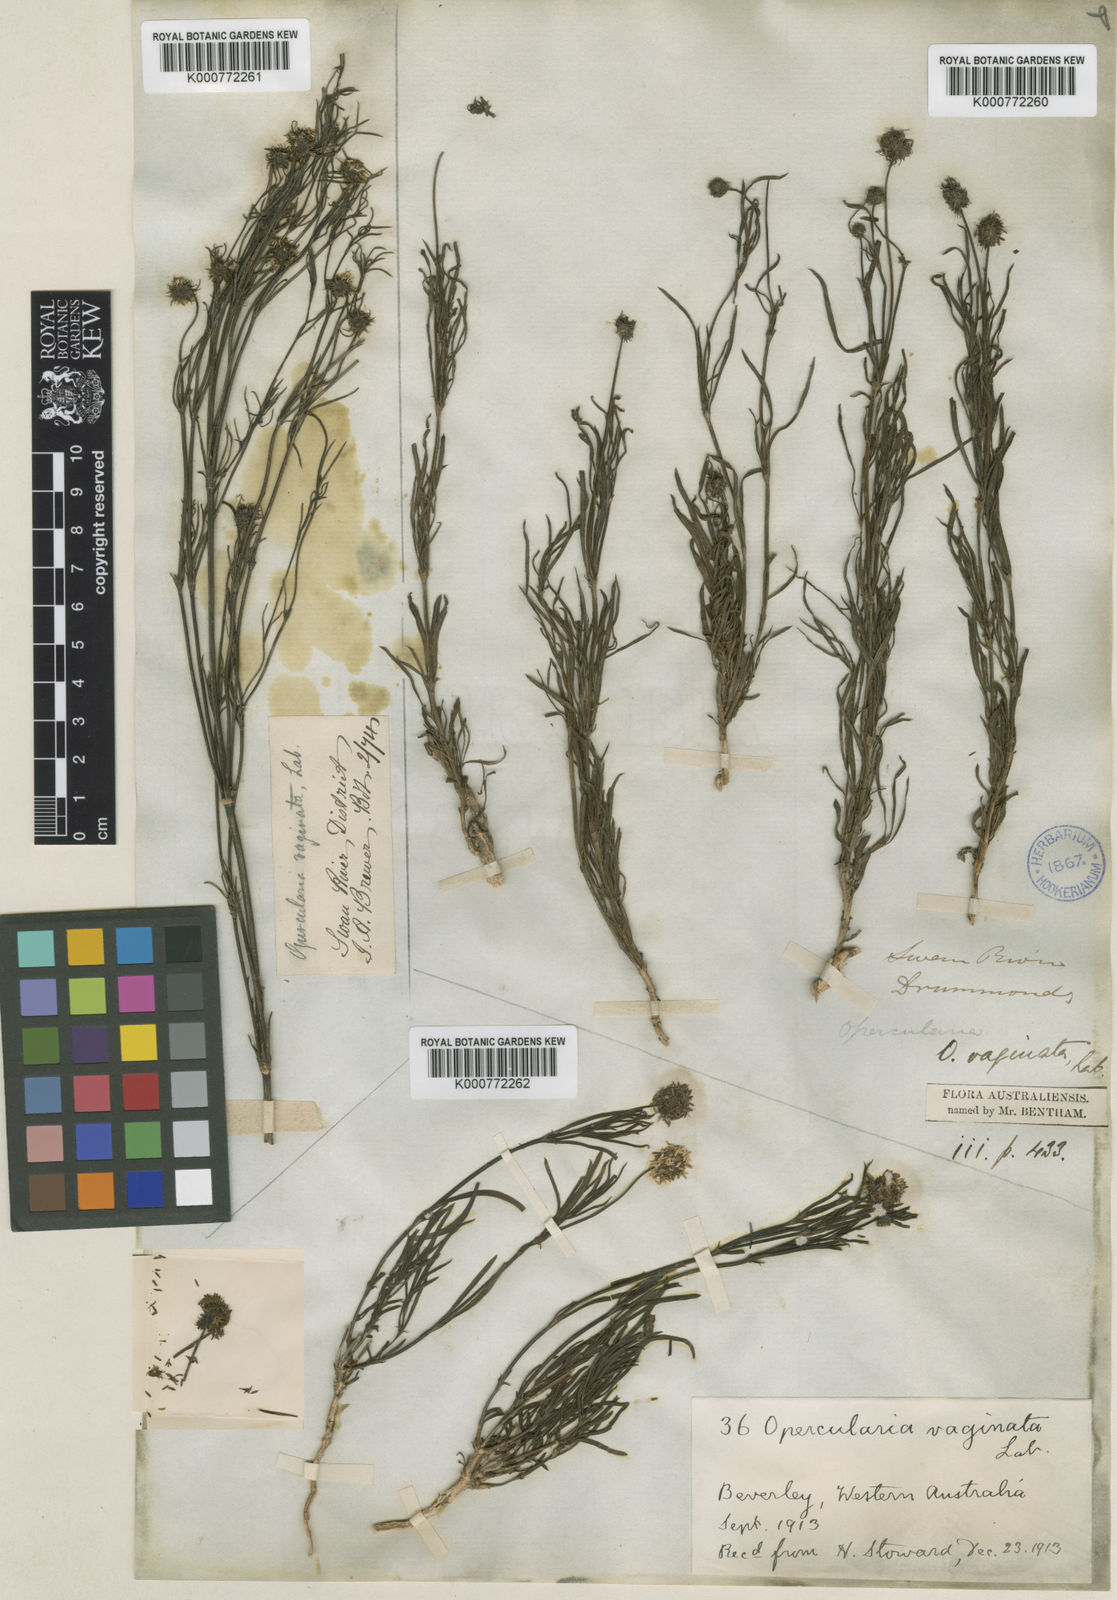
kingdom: Plantae
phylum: Tracheophyta
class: Magnoliopsida
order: Gentianales
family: Rubiaceae
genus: Opercularia
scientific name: Opercularia vaginata
